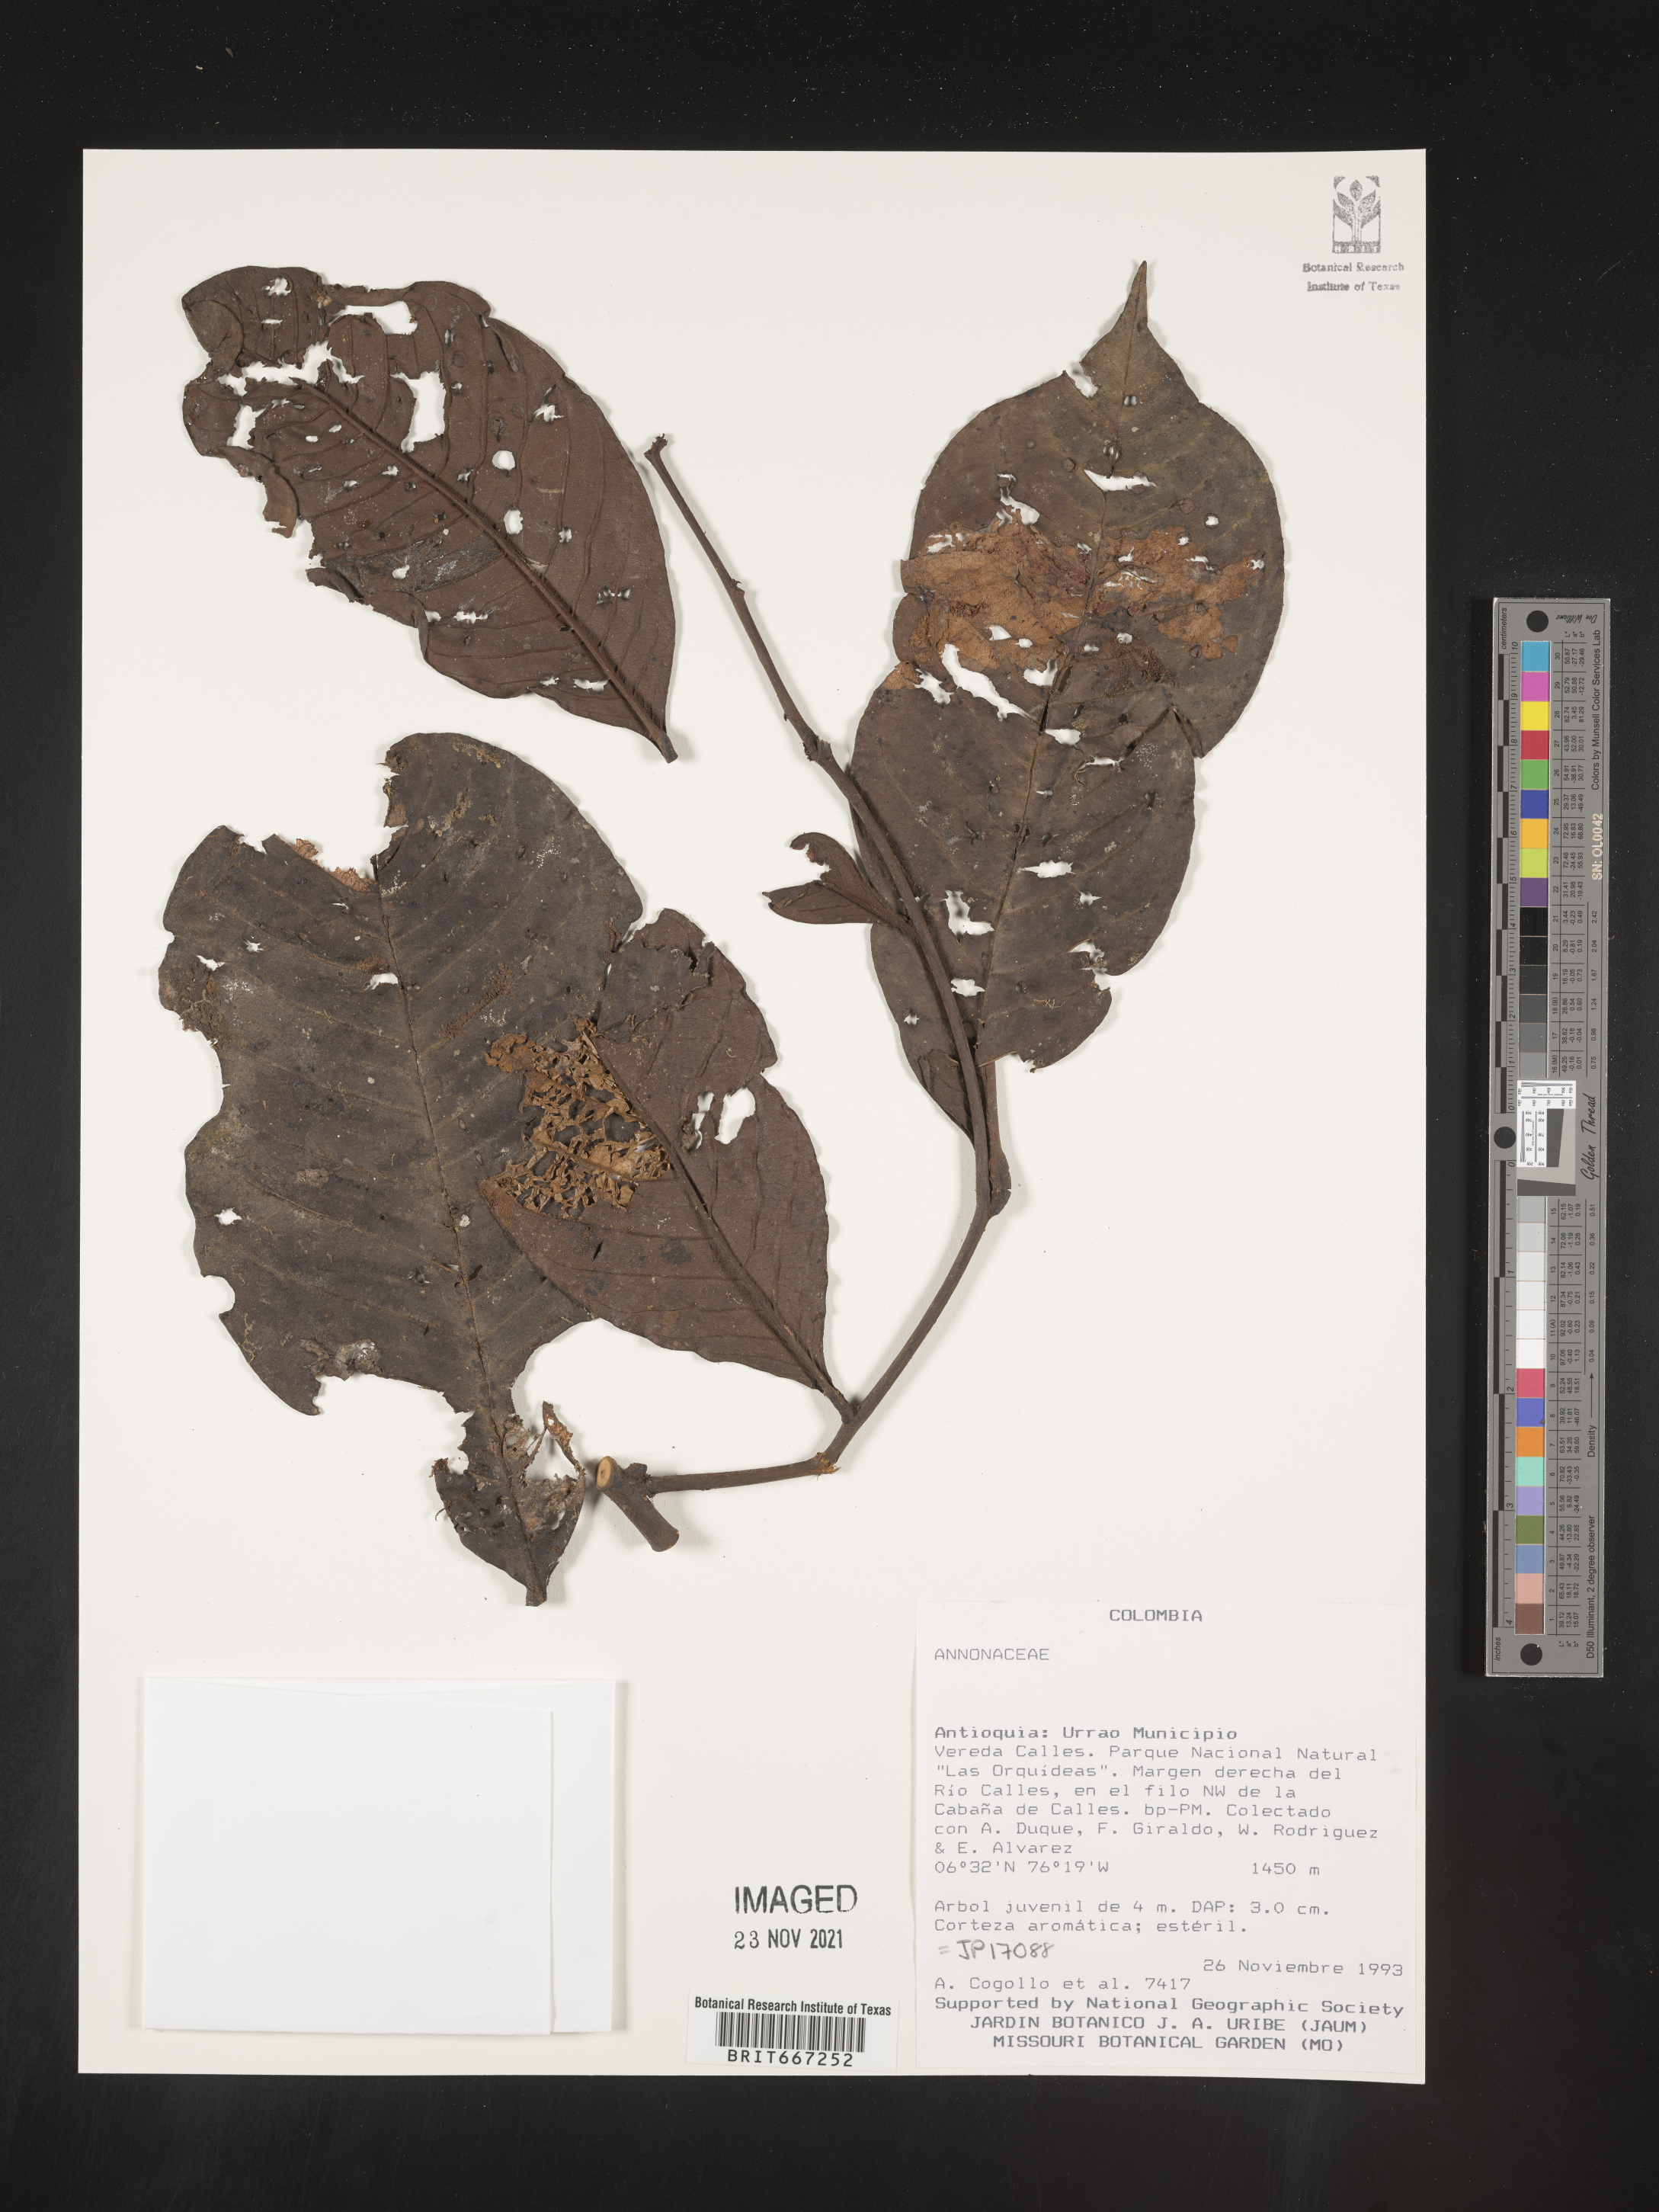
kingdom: Plantae
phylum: Tracheophyta
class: Magnoliopsida
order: Magnoliales
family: Annonaceae
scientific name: Annonaceae
